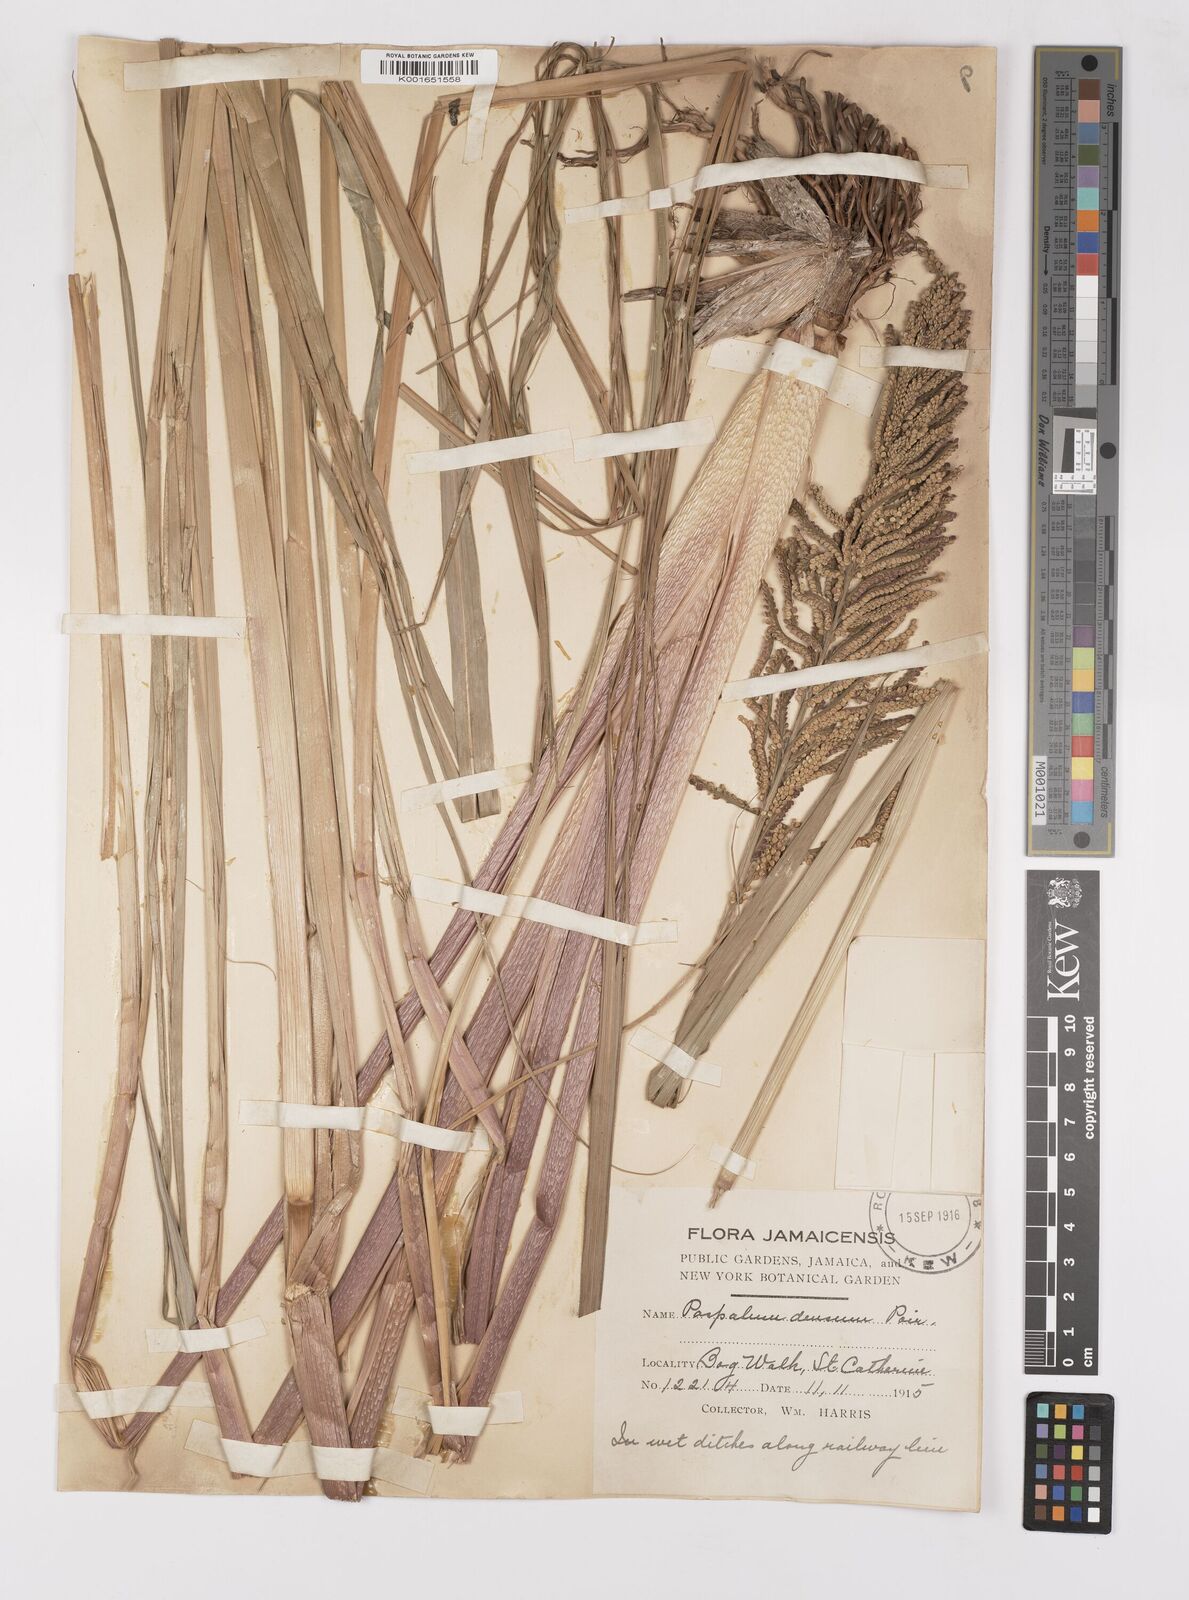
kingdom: Plantae
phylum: Tracheophyta
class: Liliopsida
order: Poales
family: Poaceae
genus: Paspalum
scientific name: Paspalum densum
